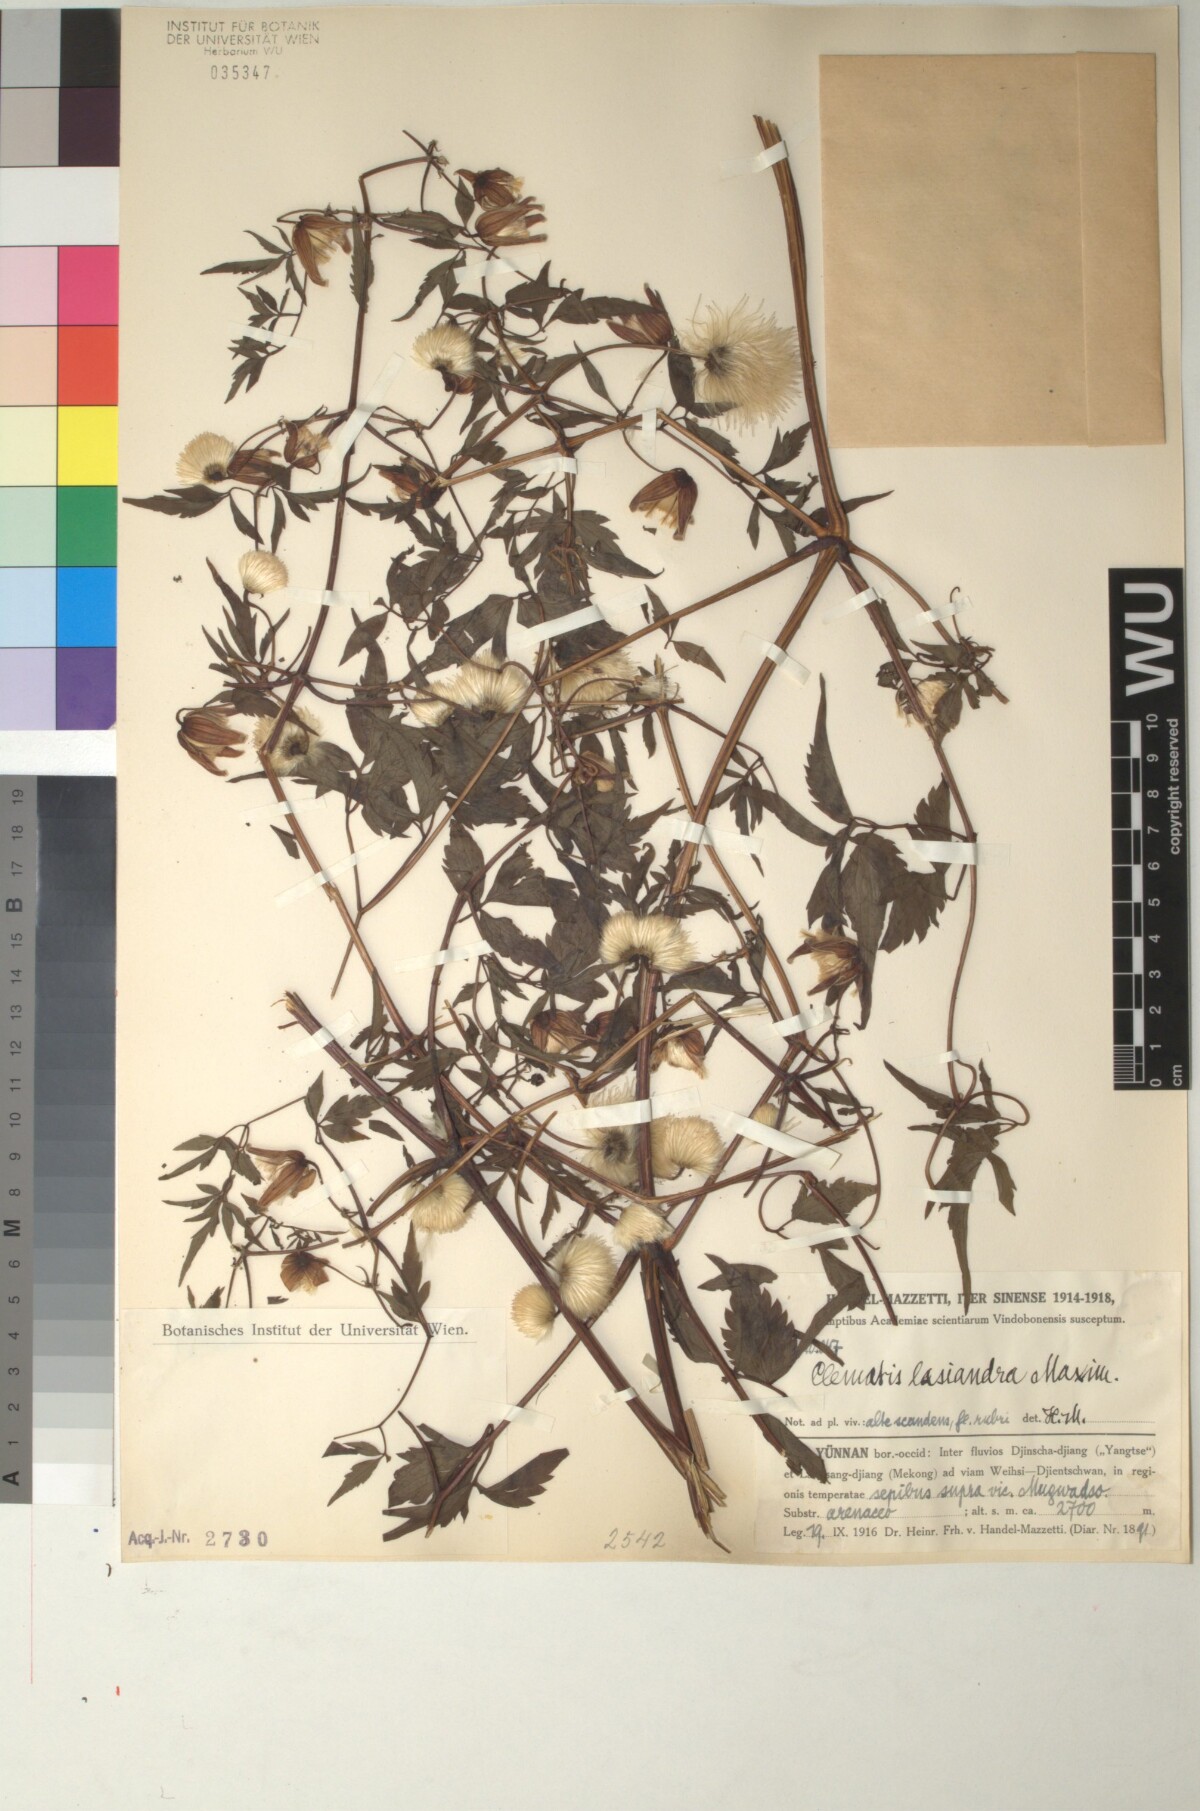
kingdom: Plantae
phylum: Tracheophyta
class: Magnoliopsida
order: Ranunculales
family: Ranunculaceae
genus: Clematis
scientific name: Clematis lasiandra
